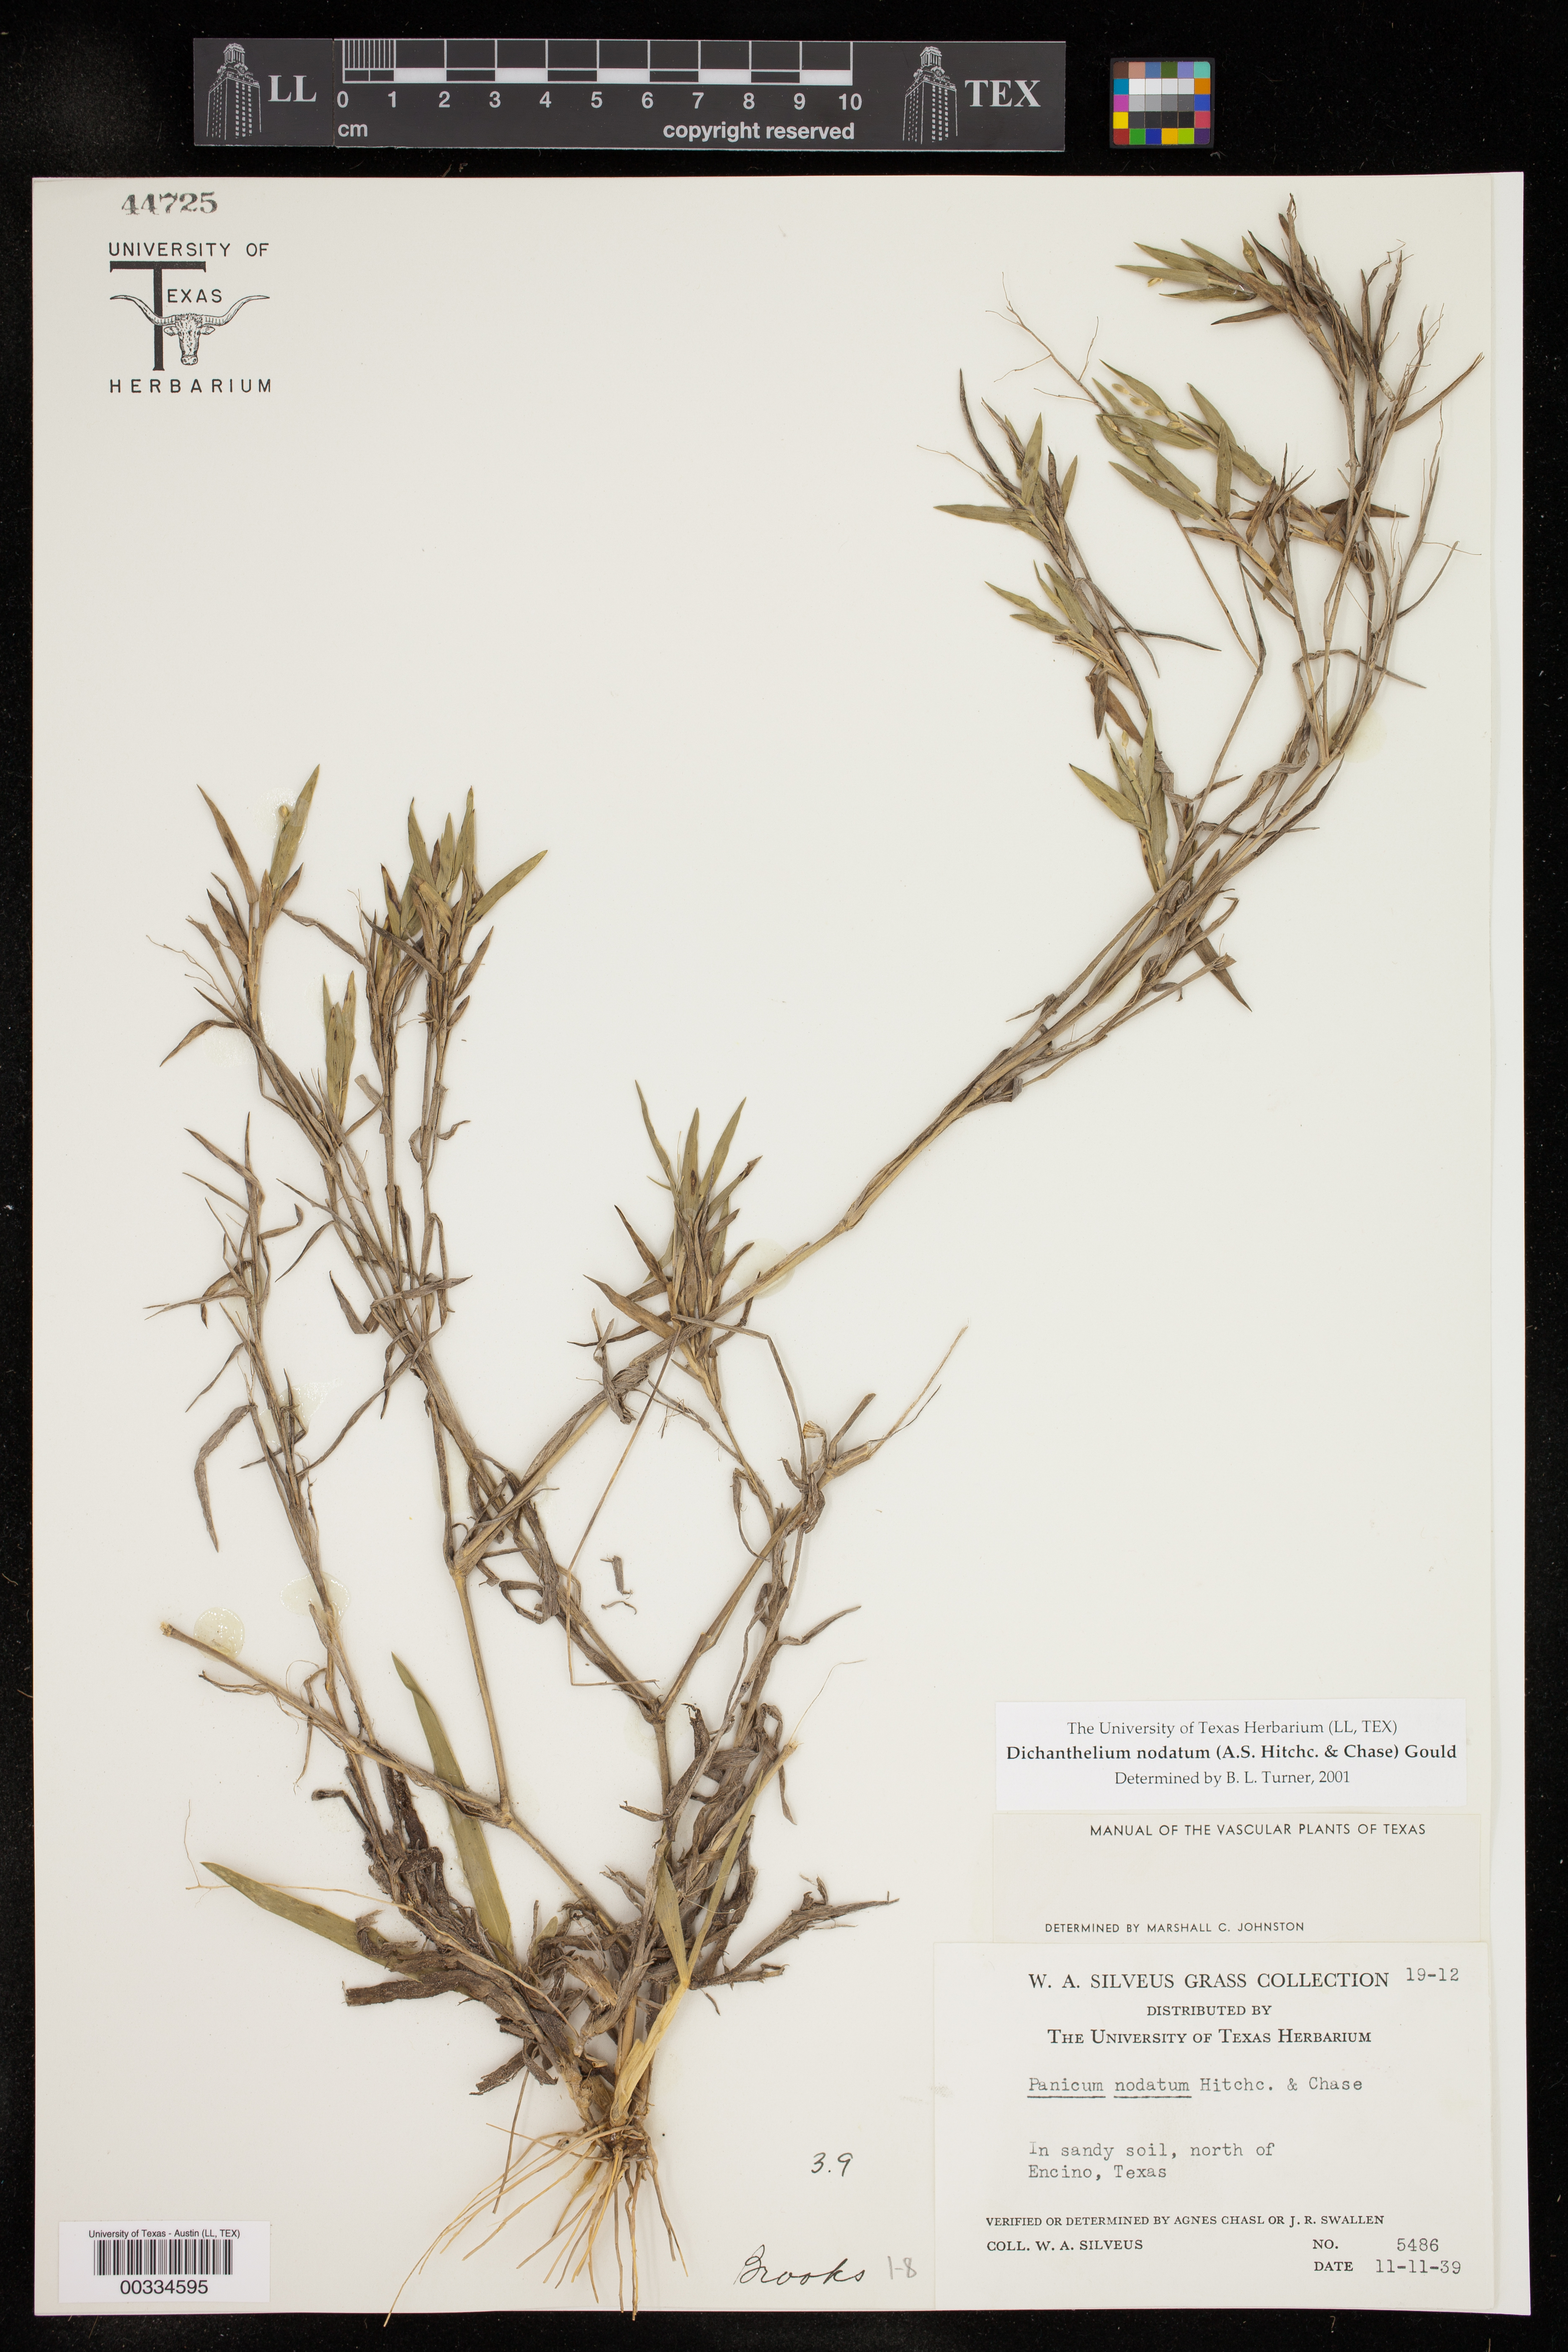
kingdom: Plantae
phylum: Tracheophyta
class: Liliopsida
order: Poales
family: Poaceae
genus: Dichanthelium
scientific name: Dichanthelium nodatum
